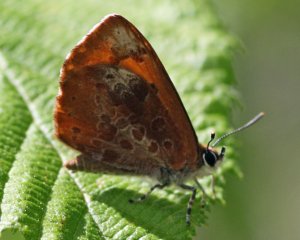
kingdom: Animalia
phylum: Arthropoda
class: Insecta
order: Lepidoptera
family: Lycaenidae
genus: Feniseca
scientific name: Feniseca tarquinius
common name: Harvester
